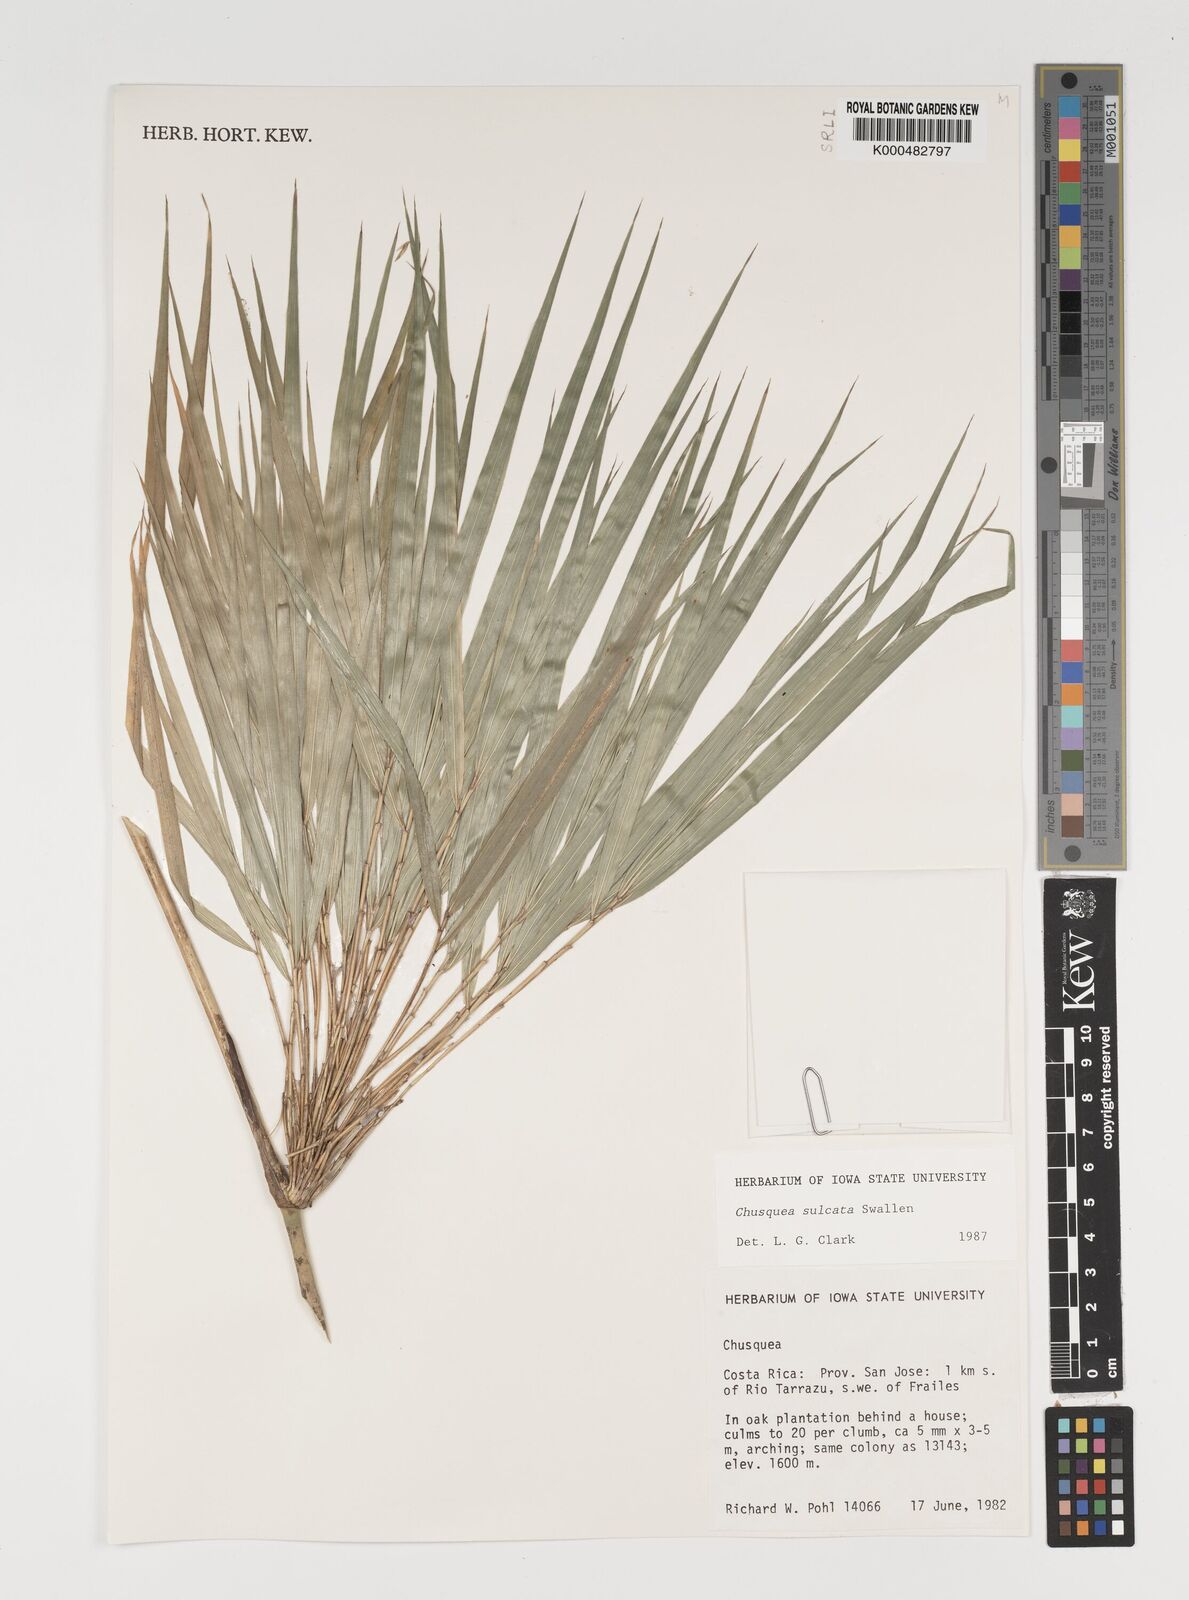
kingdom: Plantae
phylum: Tracheophyta
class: Liliopsida
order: Poales
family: Poaceae
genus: Chusquea
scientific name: Chusquea sulcata
